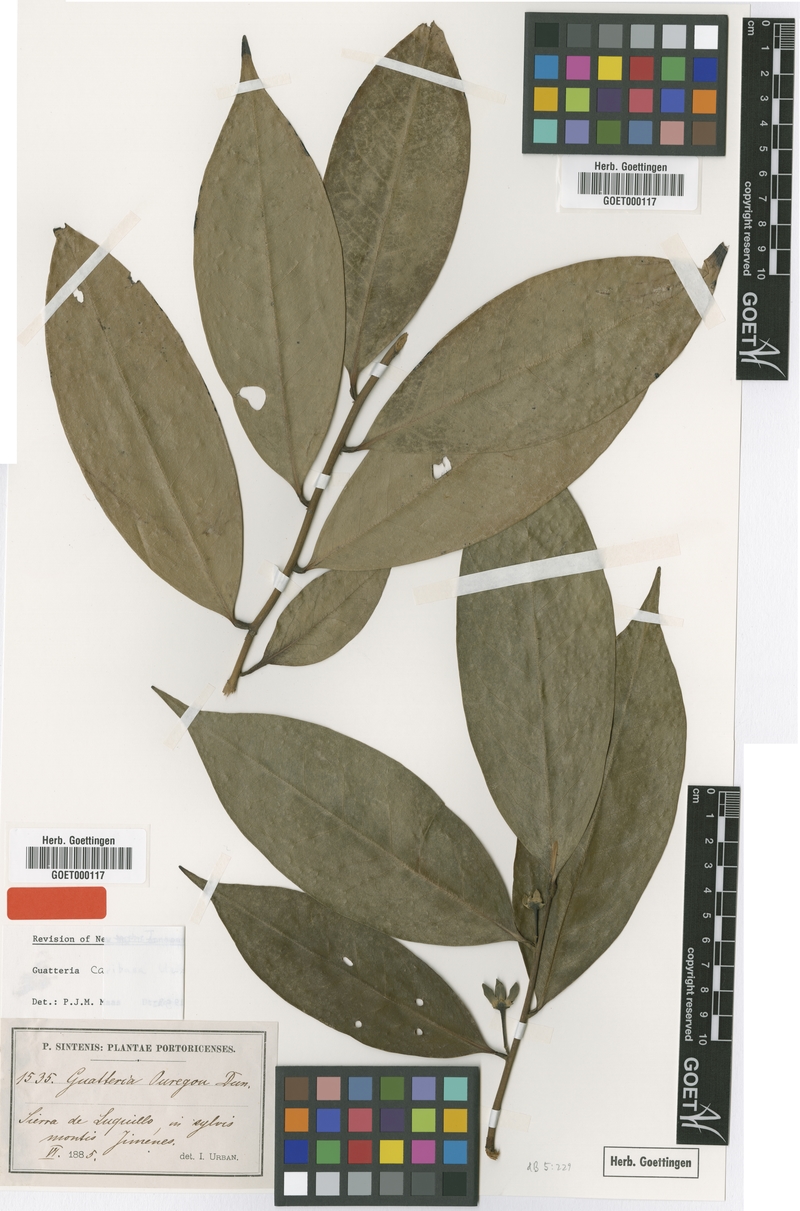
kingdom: Plantae
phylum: Tracheophyta
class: Magnoliopsida
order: Magnoliales
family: Annonaceae
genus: Guatteria
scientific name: Guatteria caribaea
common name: Wild soursop
